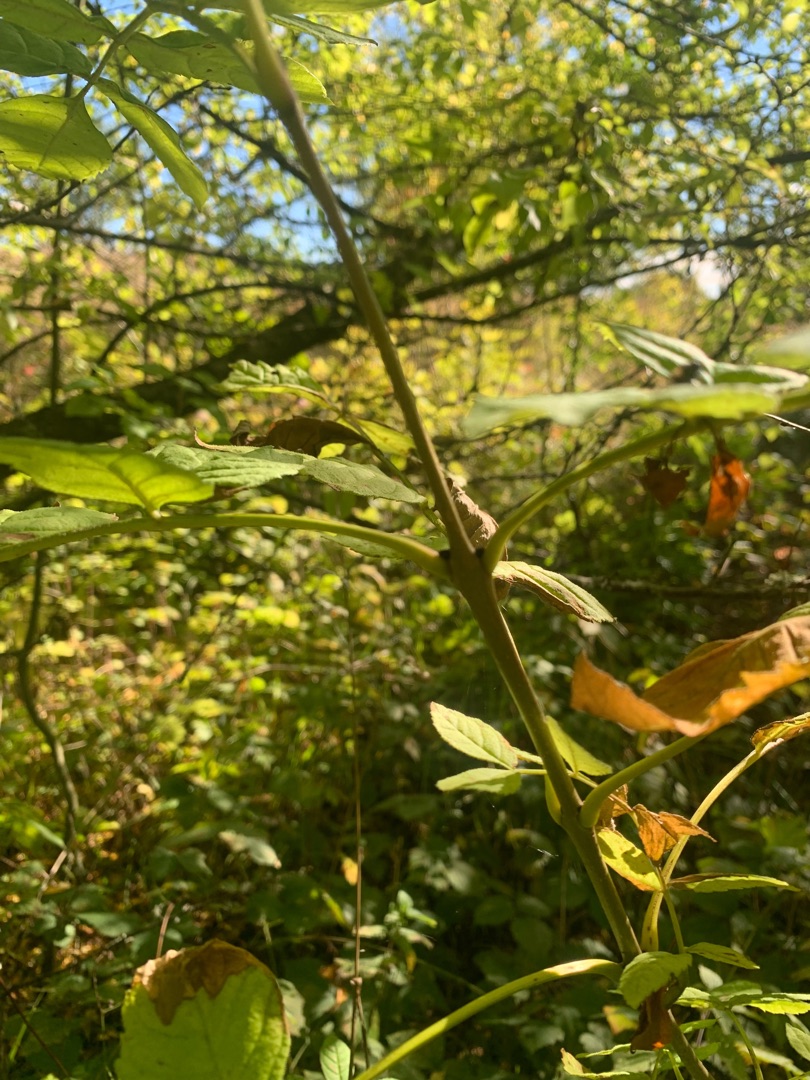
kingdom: Plantae
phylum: Tracheophyta
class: Magnoliopsida
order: Lamiales
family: Oleaceae
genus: Fraxinus
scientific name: Fraxinus excelsior
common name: Ask
